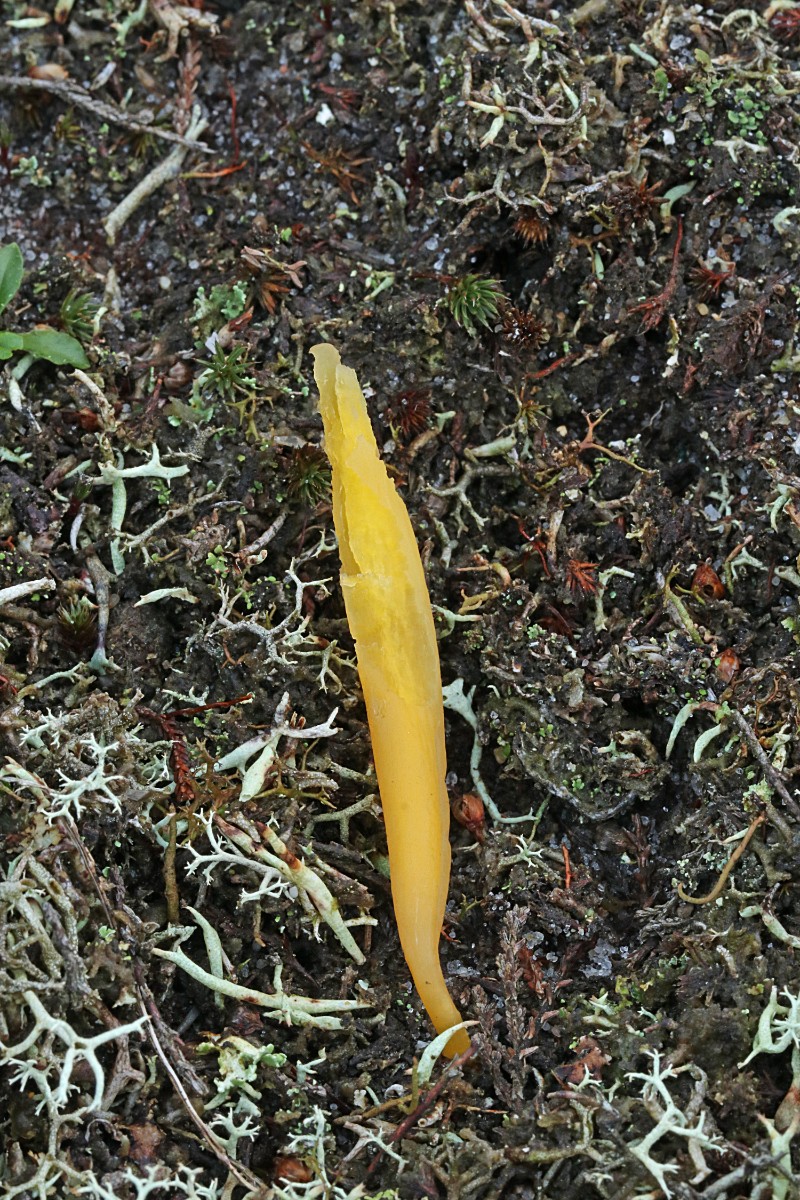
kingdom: Fungi
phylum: Basidiomycota
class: Agaricomycetes
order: Agaricales
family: Clavariaceae
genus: Clavaria
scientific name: Clavaria argillacea
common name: lerfarvet køllesvamp
